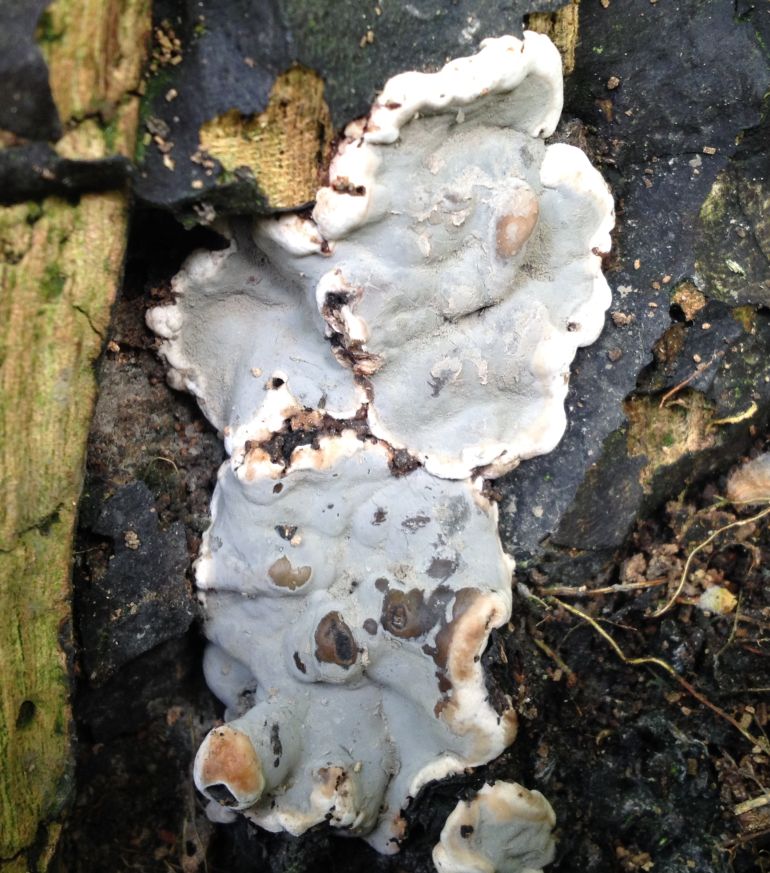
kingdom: Fungi
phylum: Ascomycota
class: Sordariomycetes
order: Xylariales
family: Xylariaceae
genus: Kretzschmaria
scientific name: Kretzschmaria deusta
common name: stor kulsvamp
